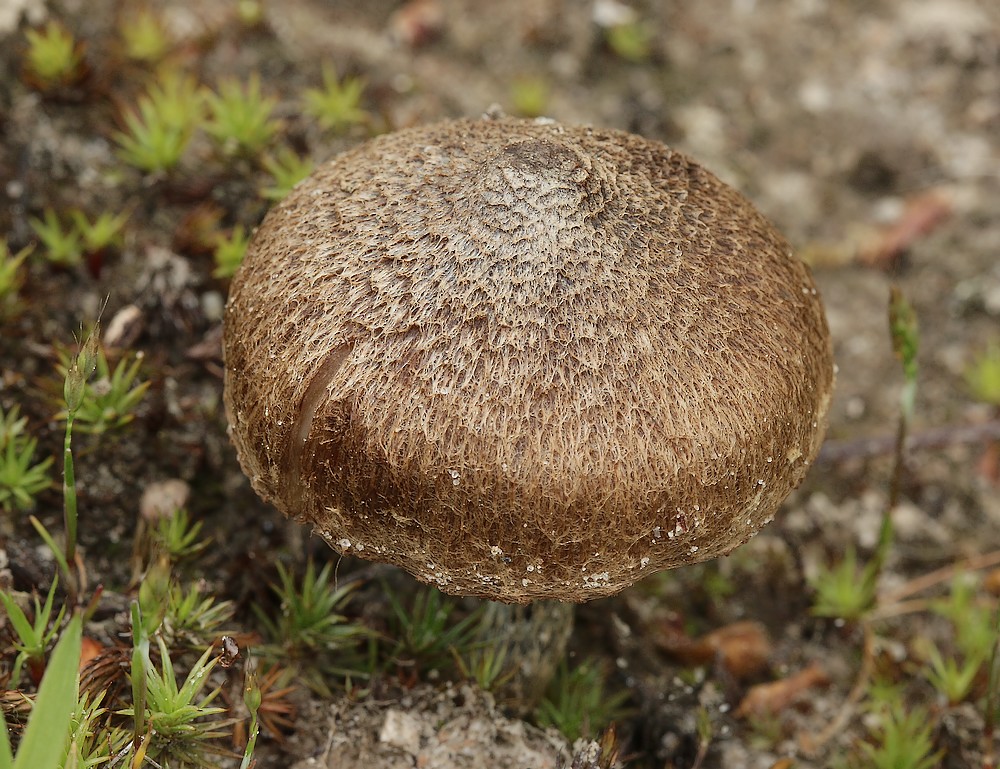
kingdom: Fungi
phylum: Basidiomycota
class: Agaricomycetes
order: Agaricales
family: Inocybaceae
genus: Inocybe
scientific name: Inocybe lacera
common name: laset trævlhat
